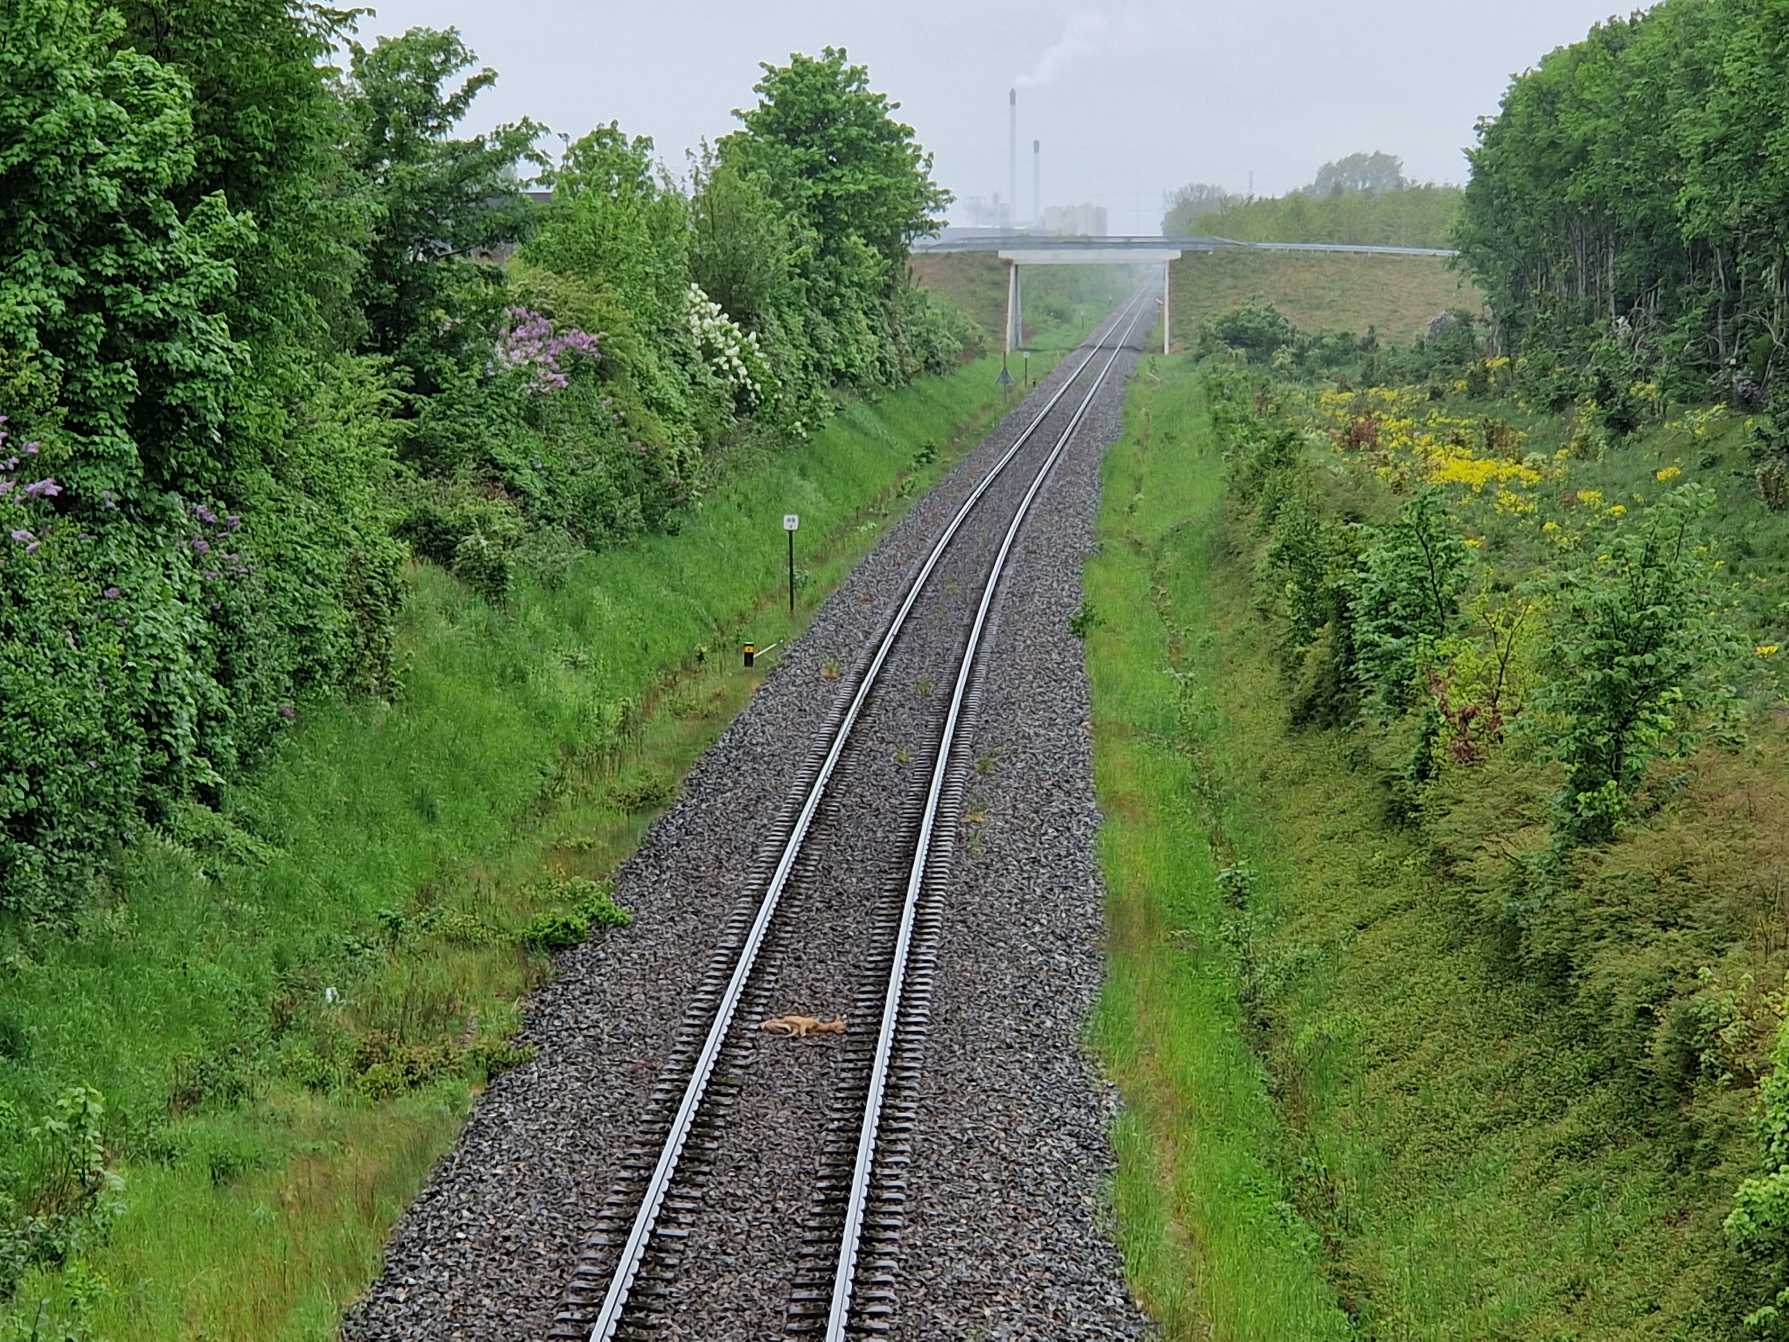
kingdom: Animalia
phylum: Chordata
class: Mammalia
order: Artiodactyla
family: Cervidae
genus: Capreolus
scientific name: Capreolus capreolus
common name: Rådyr
